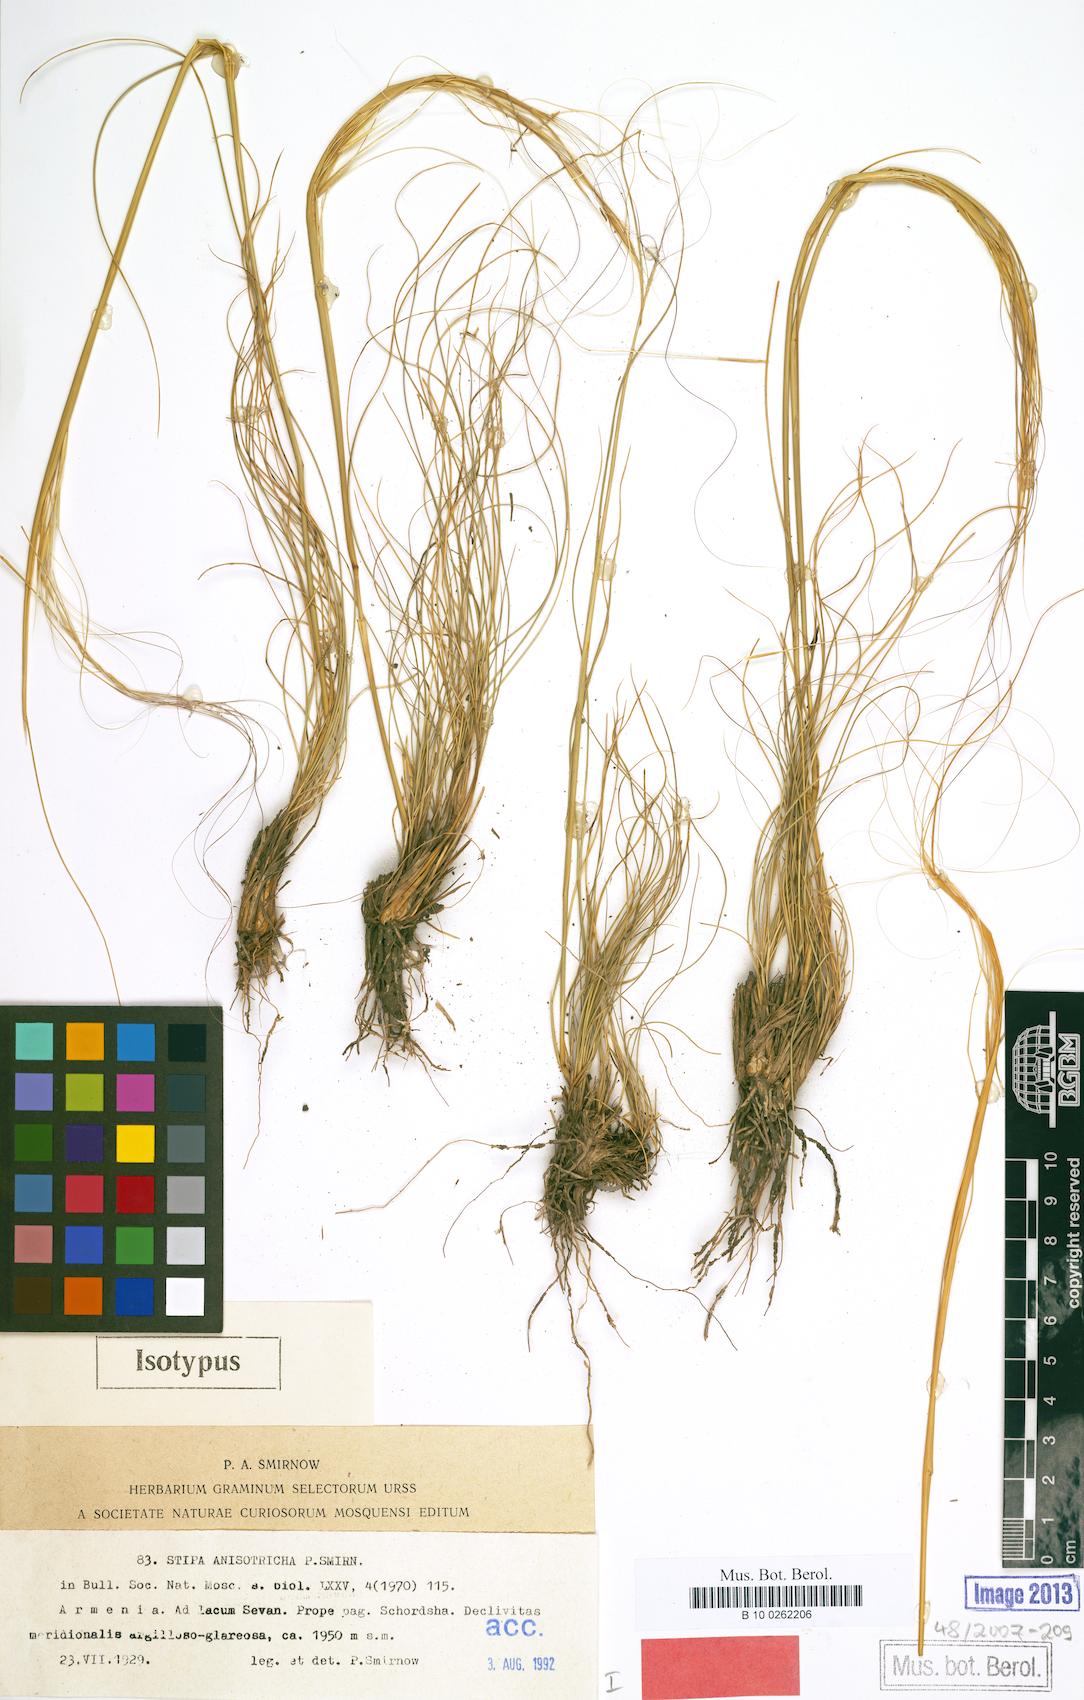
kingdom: Plantae
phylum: Tracheophyta
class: Liliopsida
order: Poales
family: Poaceae
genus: Stipa
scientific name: Stipa sareptana
